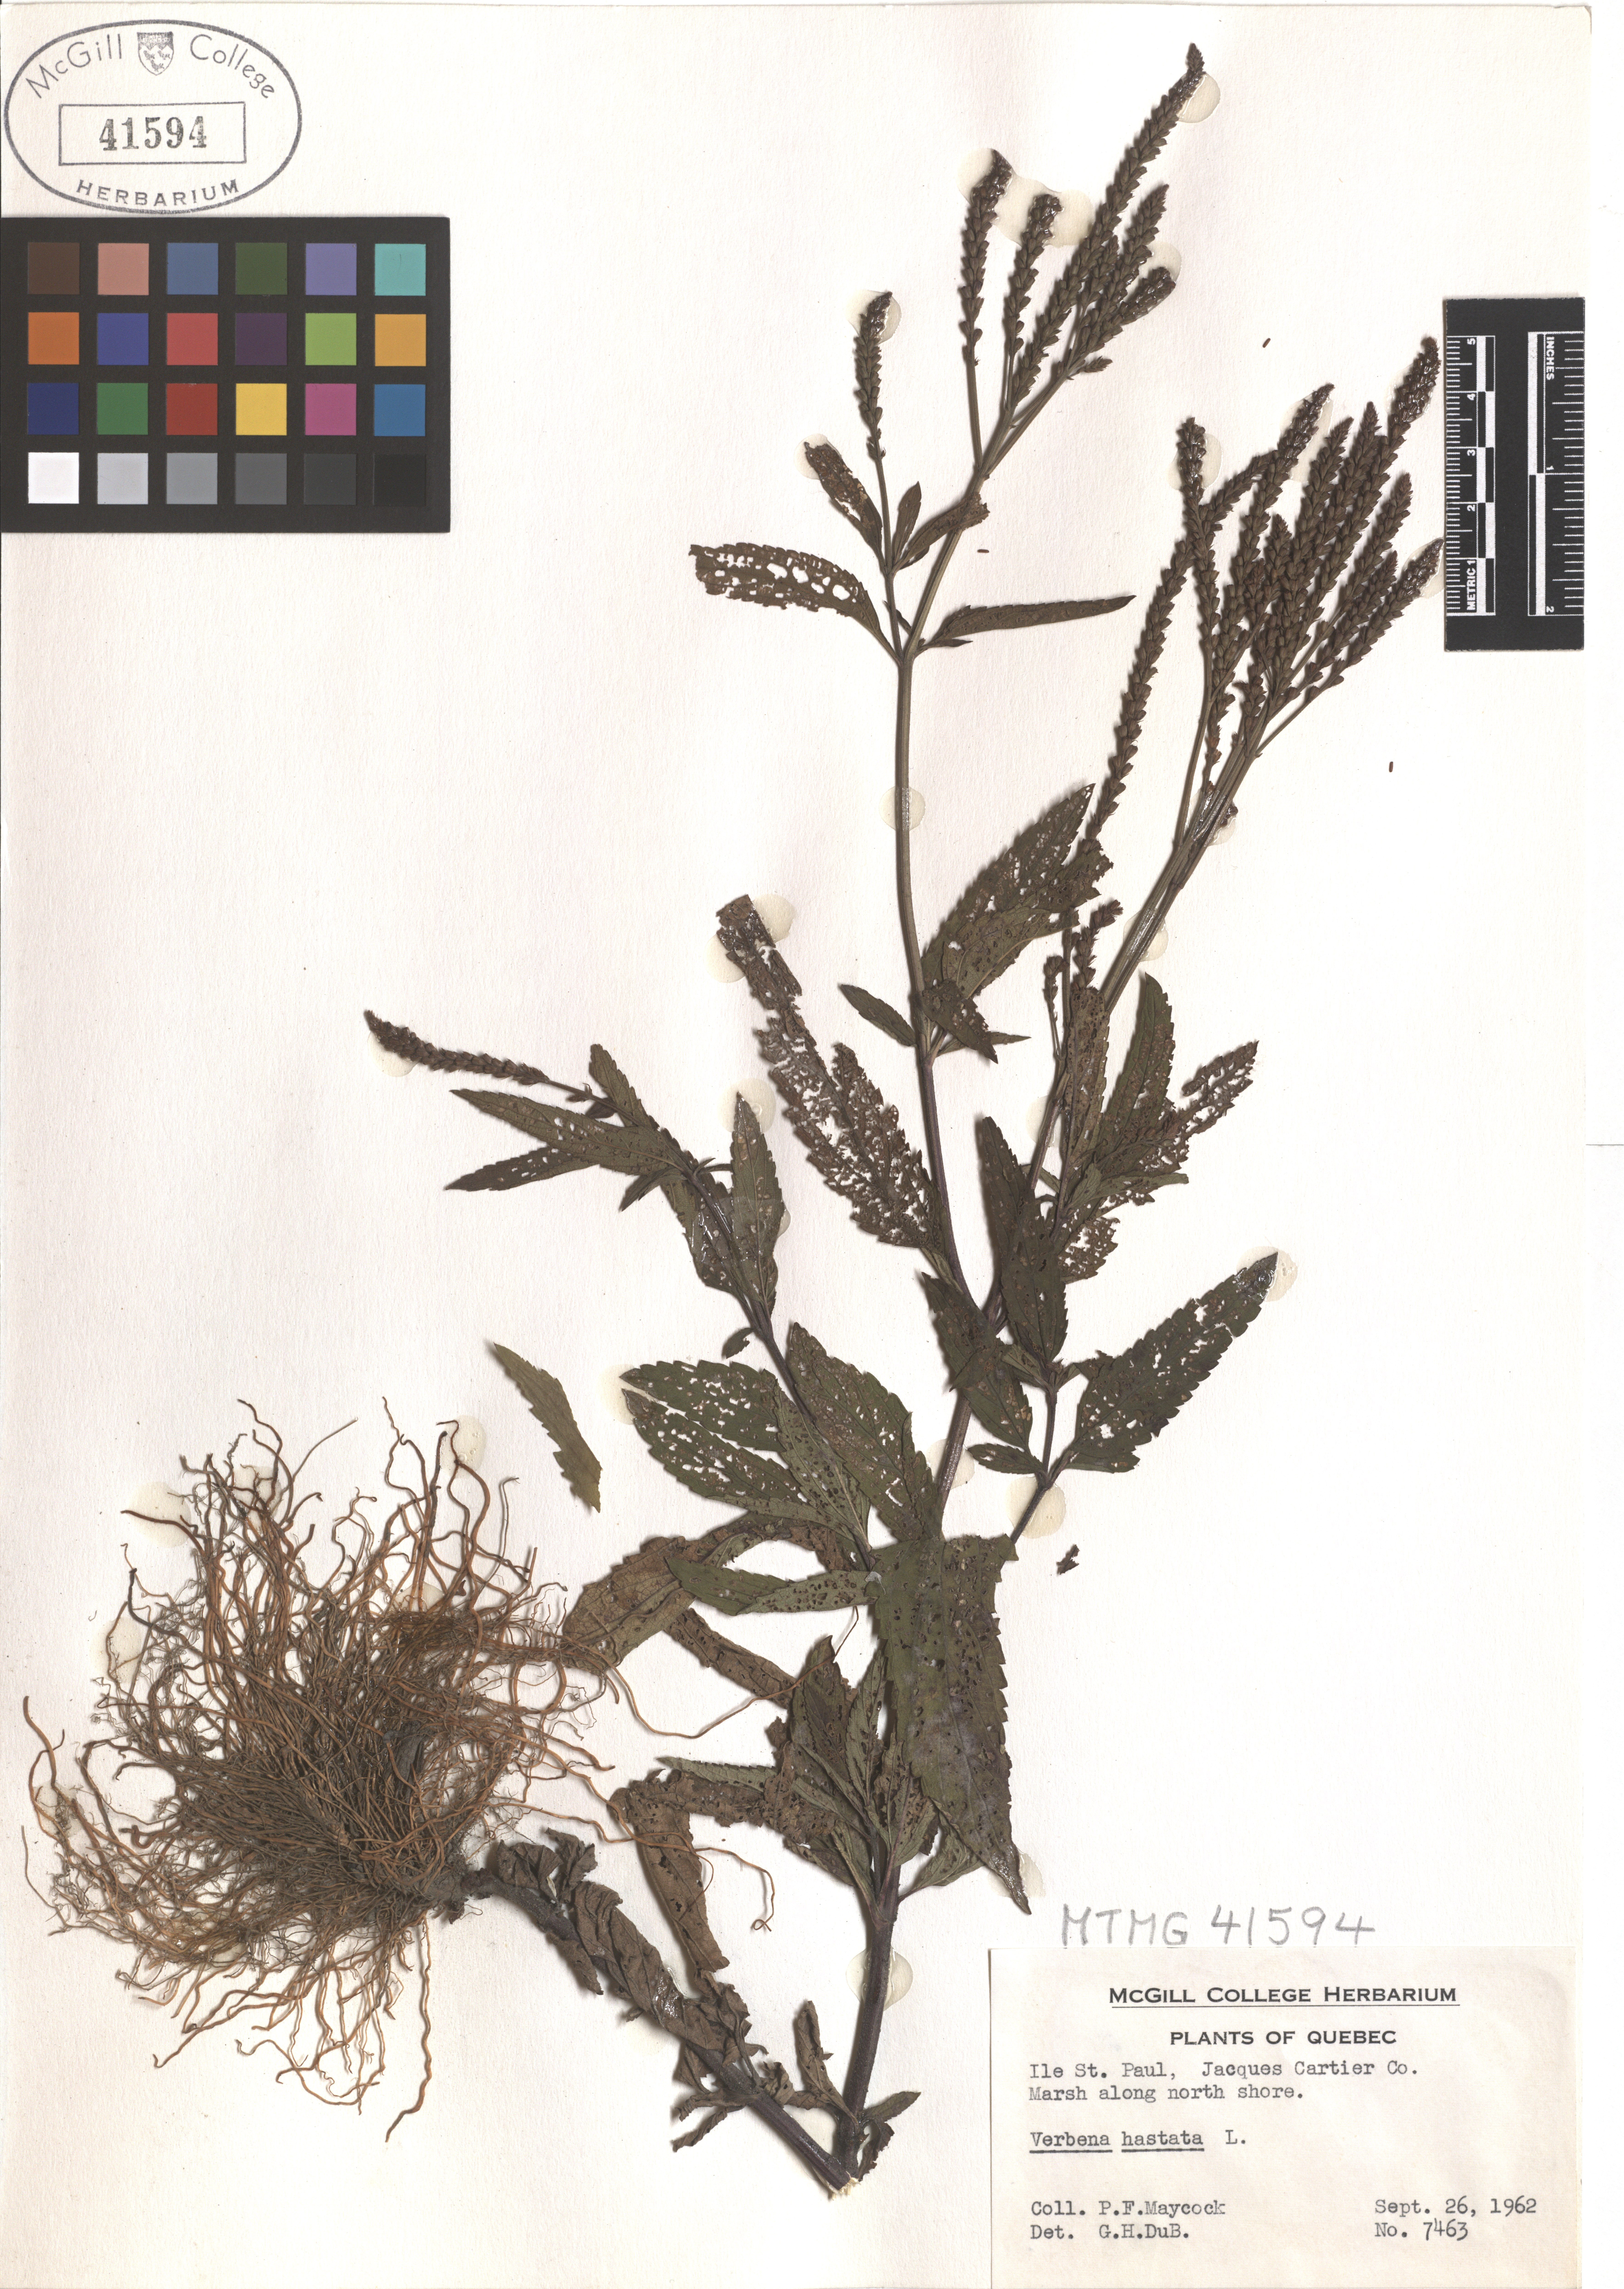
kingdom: Plantae
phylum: Tracheophyta
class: Magnoliopsida
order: Lamiales
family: Verbenaceae
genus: Verbena
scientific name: Verbena hastata
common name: American blue vervain
